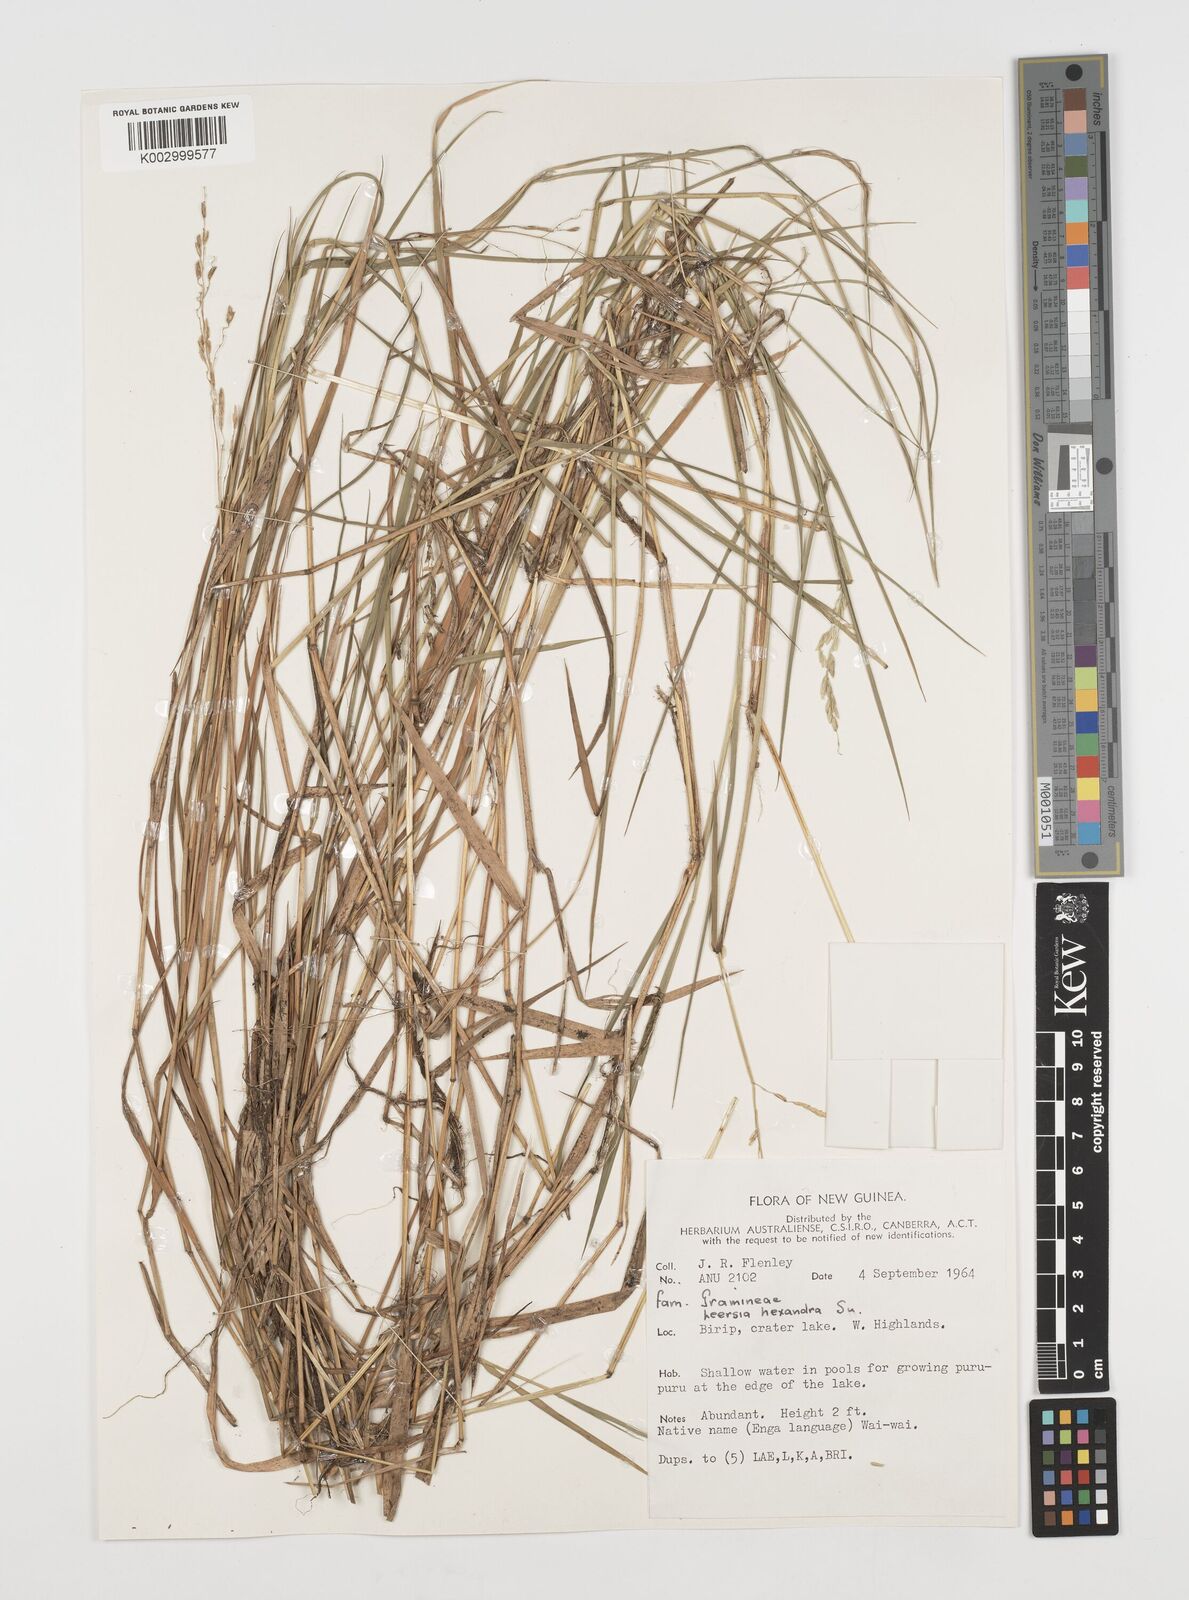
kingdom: Plantae
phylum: Tracheophyta
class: Liliopsida
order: Poales
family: Poaceae
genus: Leersia
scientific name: Leersia hexandra
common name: Southern cut grass
